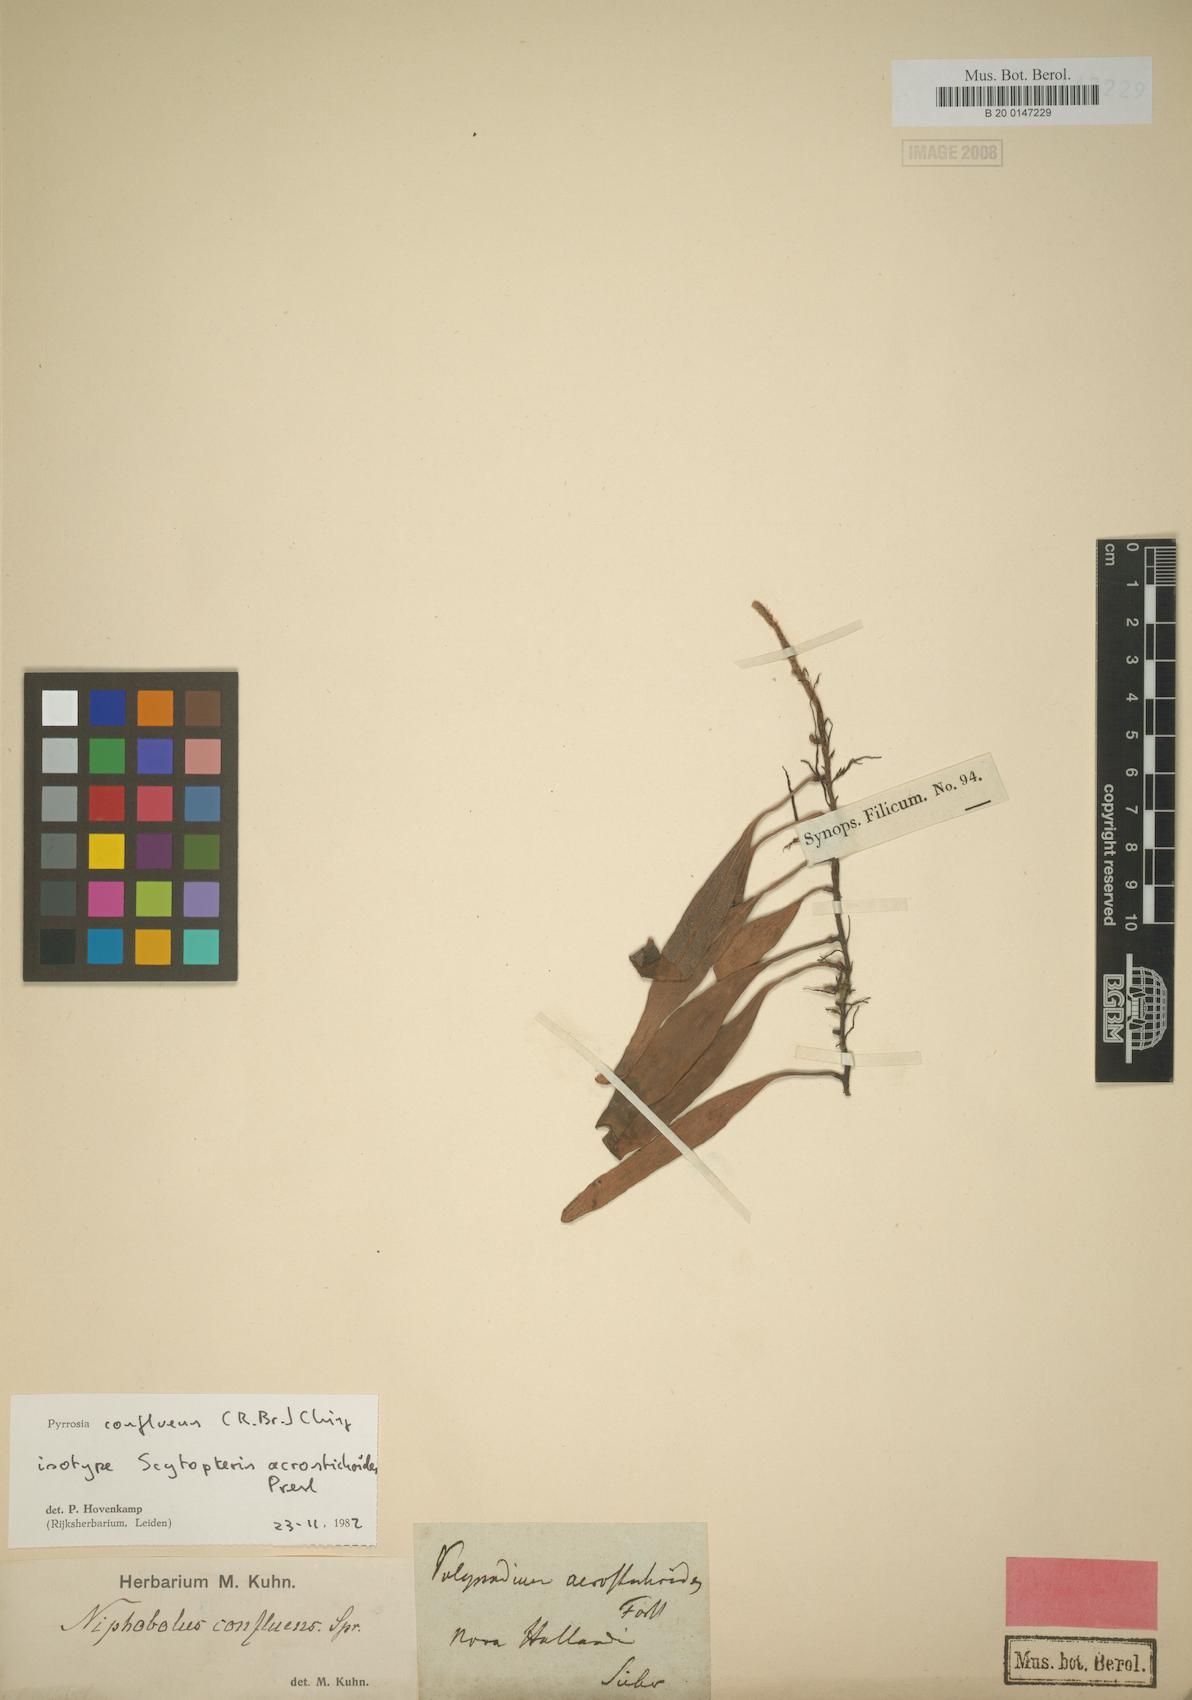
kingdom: Plantae
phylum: Tracheophyta
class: Polypodiopsida
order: Polypodiales
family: Polypodiaceae
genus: Pyrrosia
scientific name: Pyrrosia confluens
